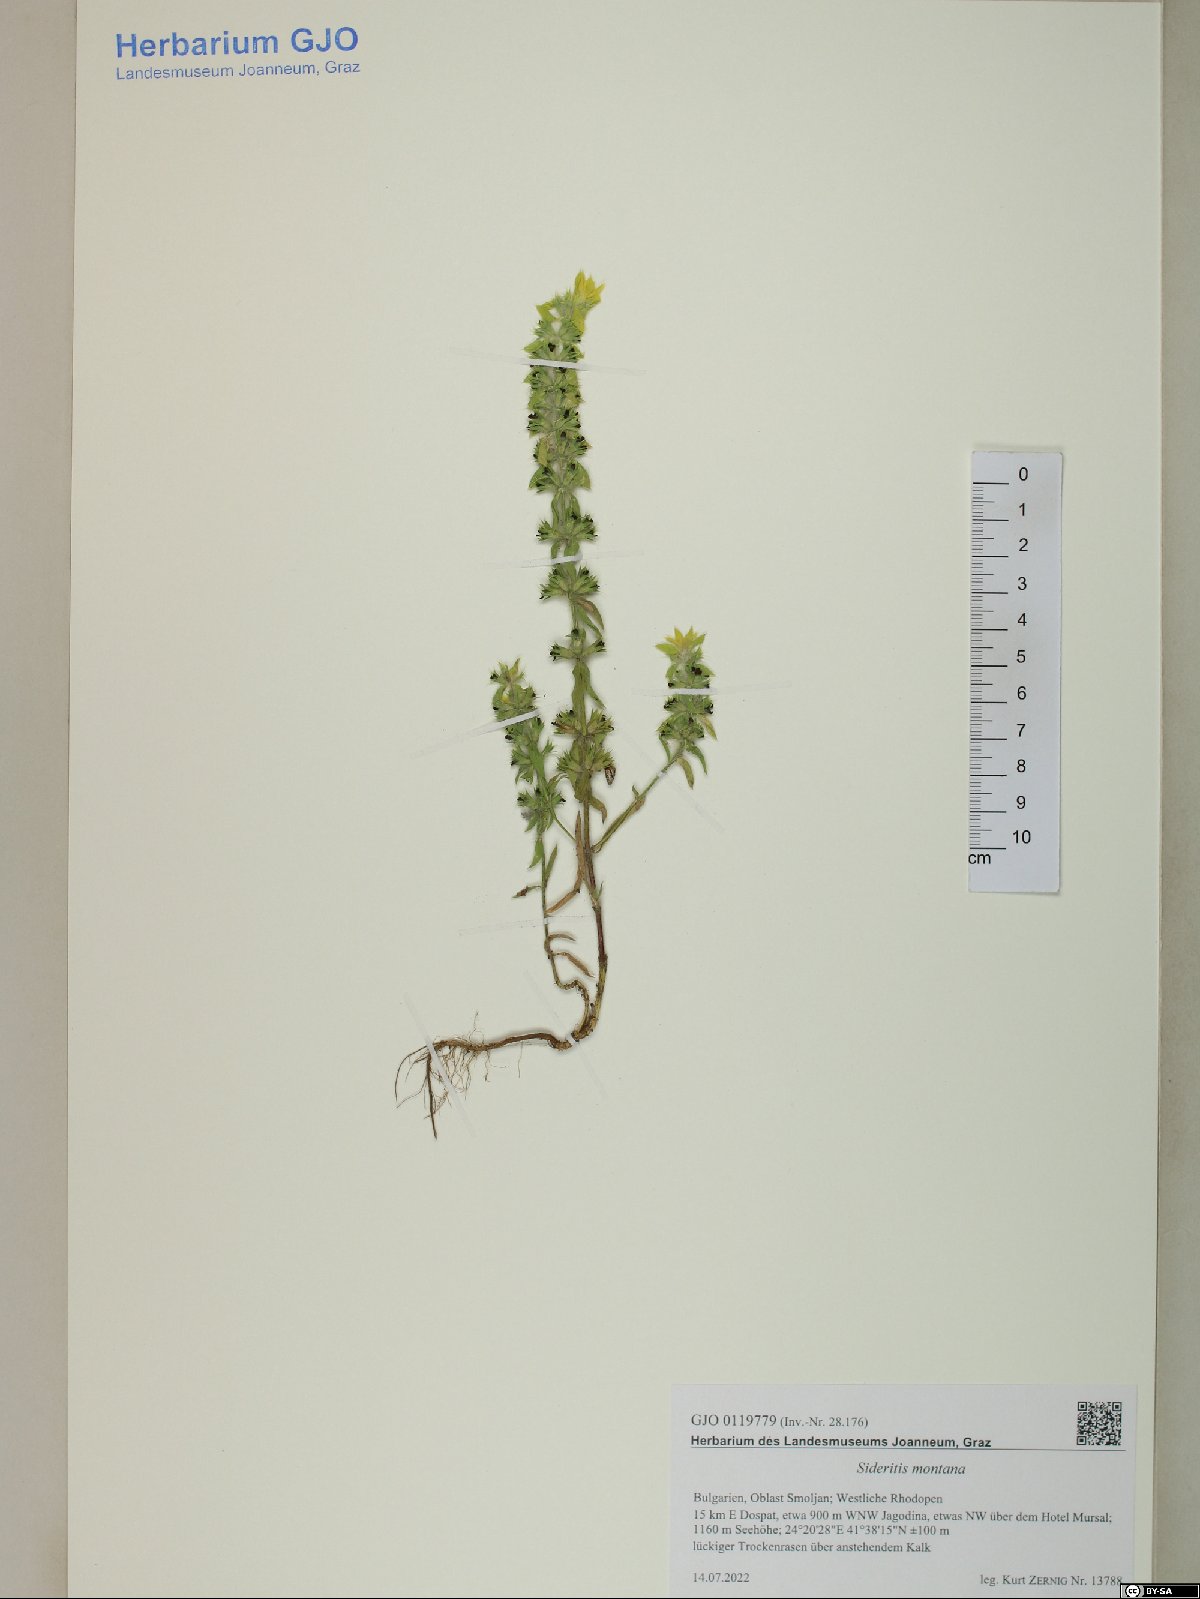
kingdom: Plantae
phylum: Tracheophyta
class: Magnoliopsida
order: Lamiales
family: Lamiaceae
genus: Sideritis
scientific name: Sideritis montana
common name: Mountain ironwort
